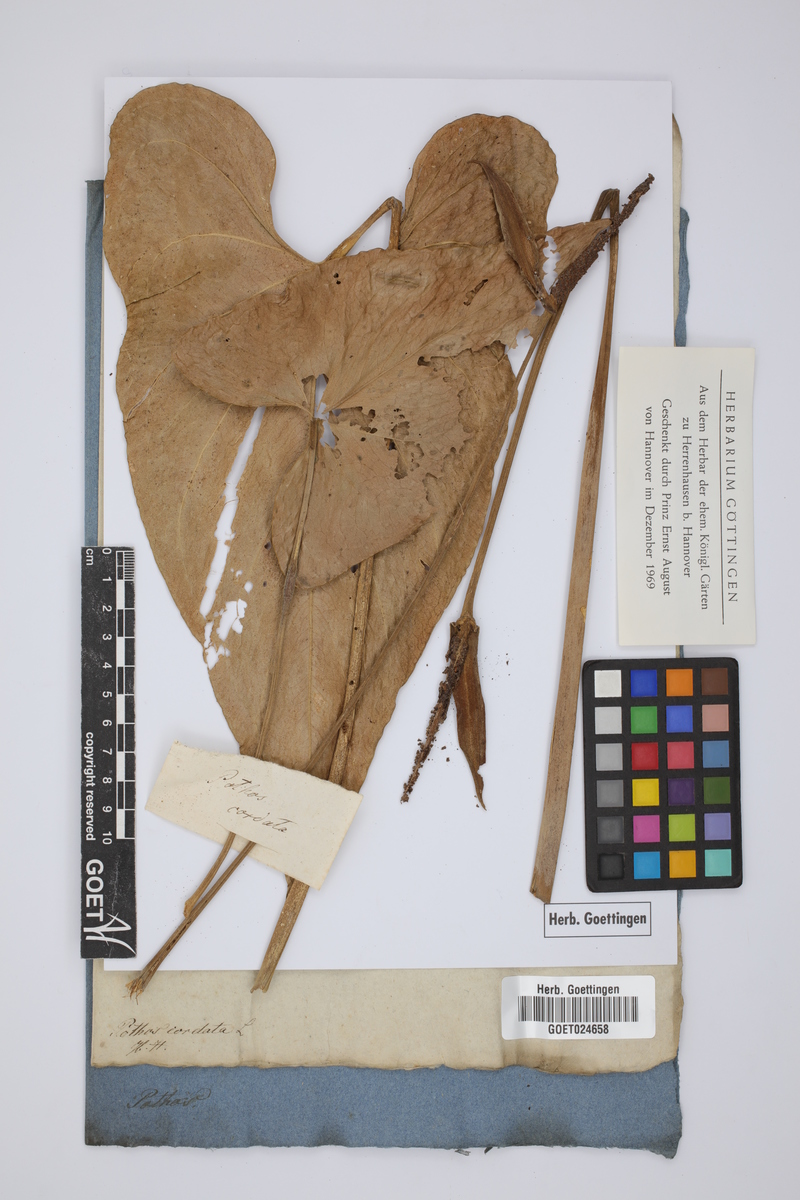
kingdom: Plantae
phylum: Tracheophyta
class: Liliopsida
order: Alismatales
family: Araceae
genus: Anthurium
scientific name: Anthurium cordatum
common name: Monkey tail
